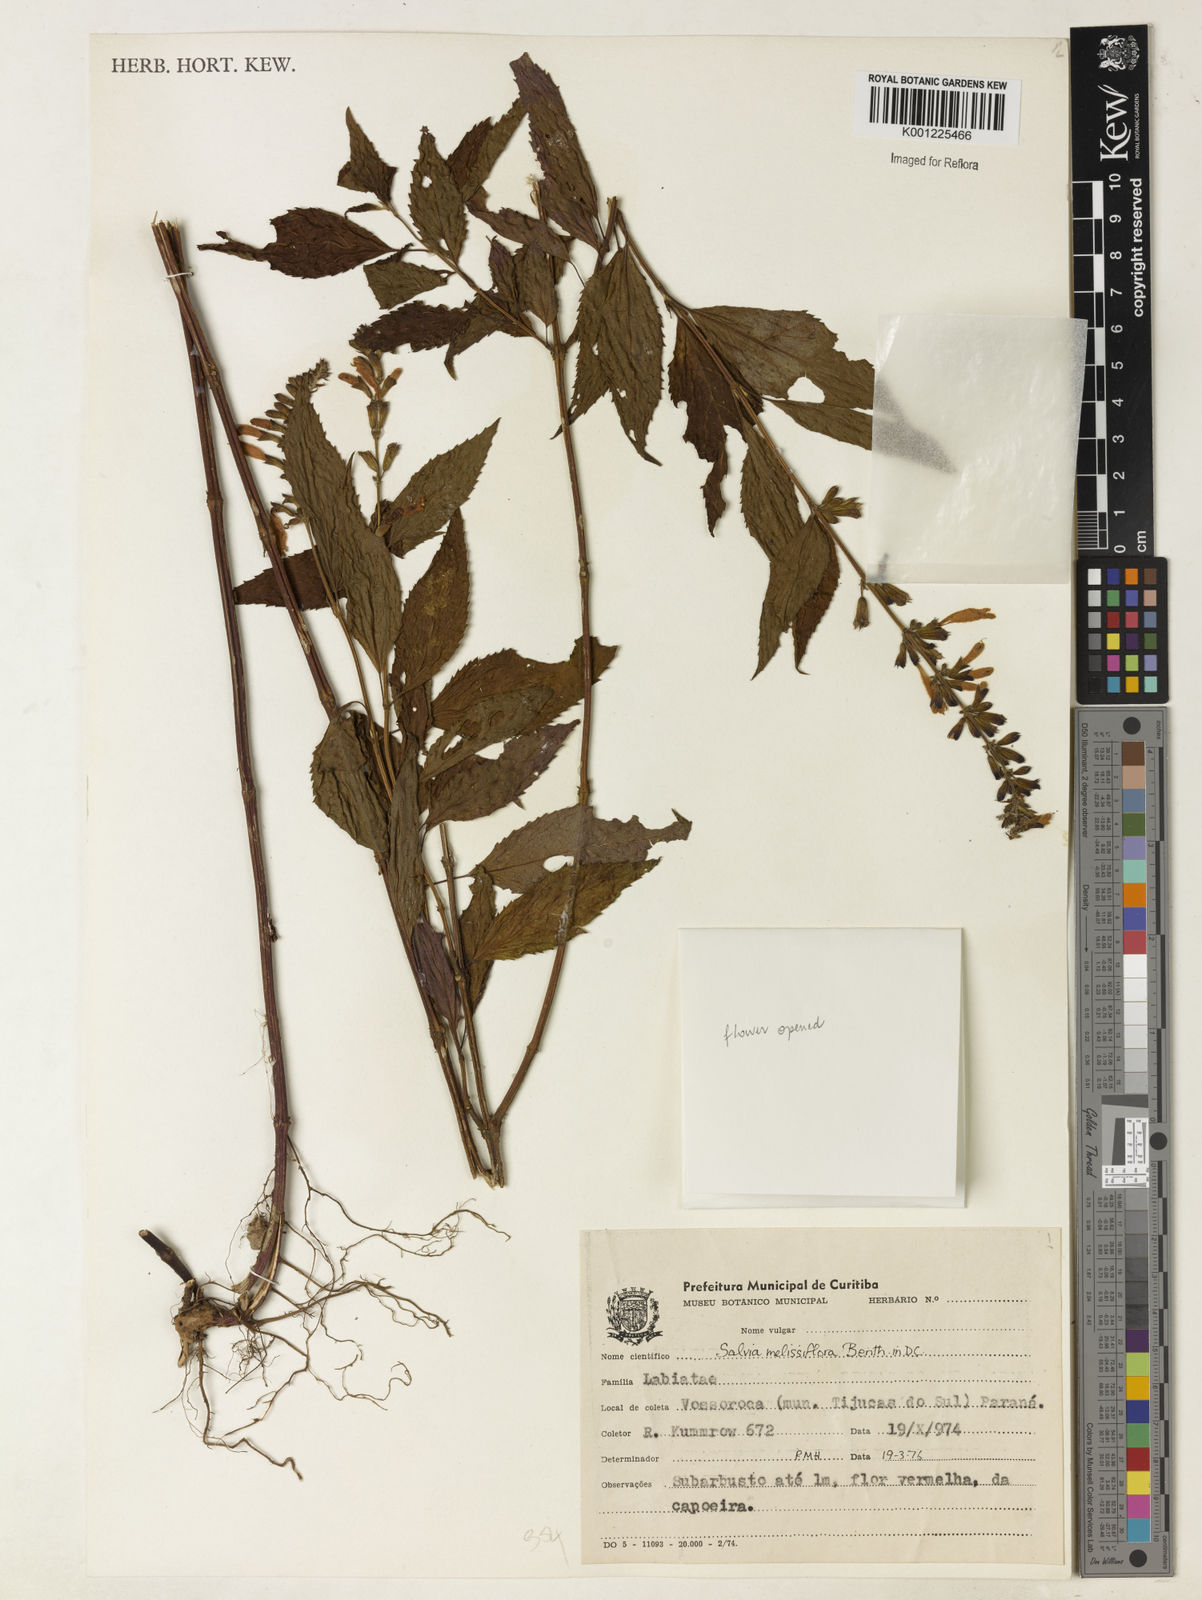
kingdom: Plantae
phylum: Tracheophyta
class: Magnoliopsida
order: Lamiales
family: Lamiaceae
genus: Salvia
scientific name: Salvia melissiflora
